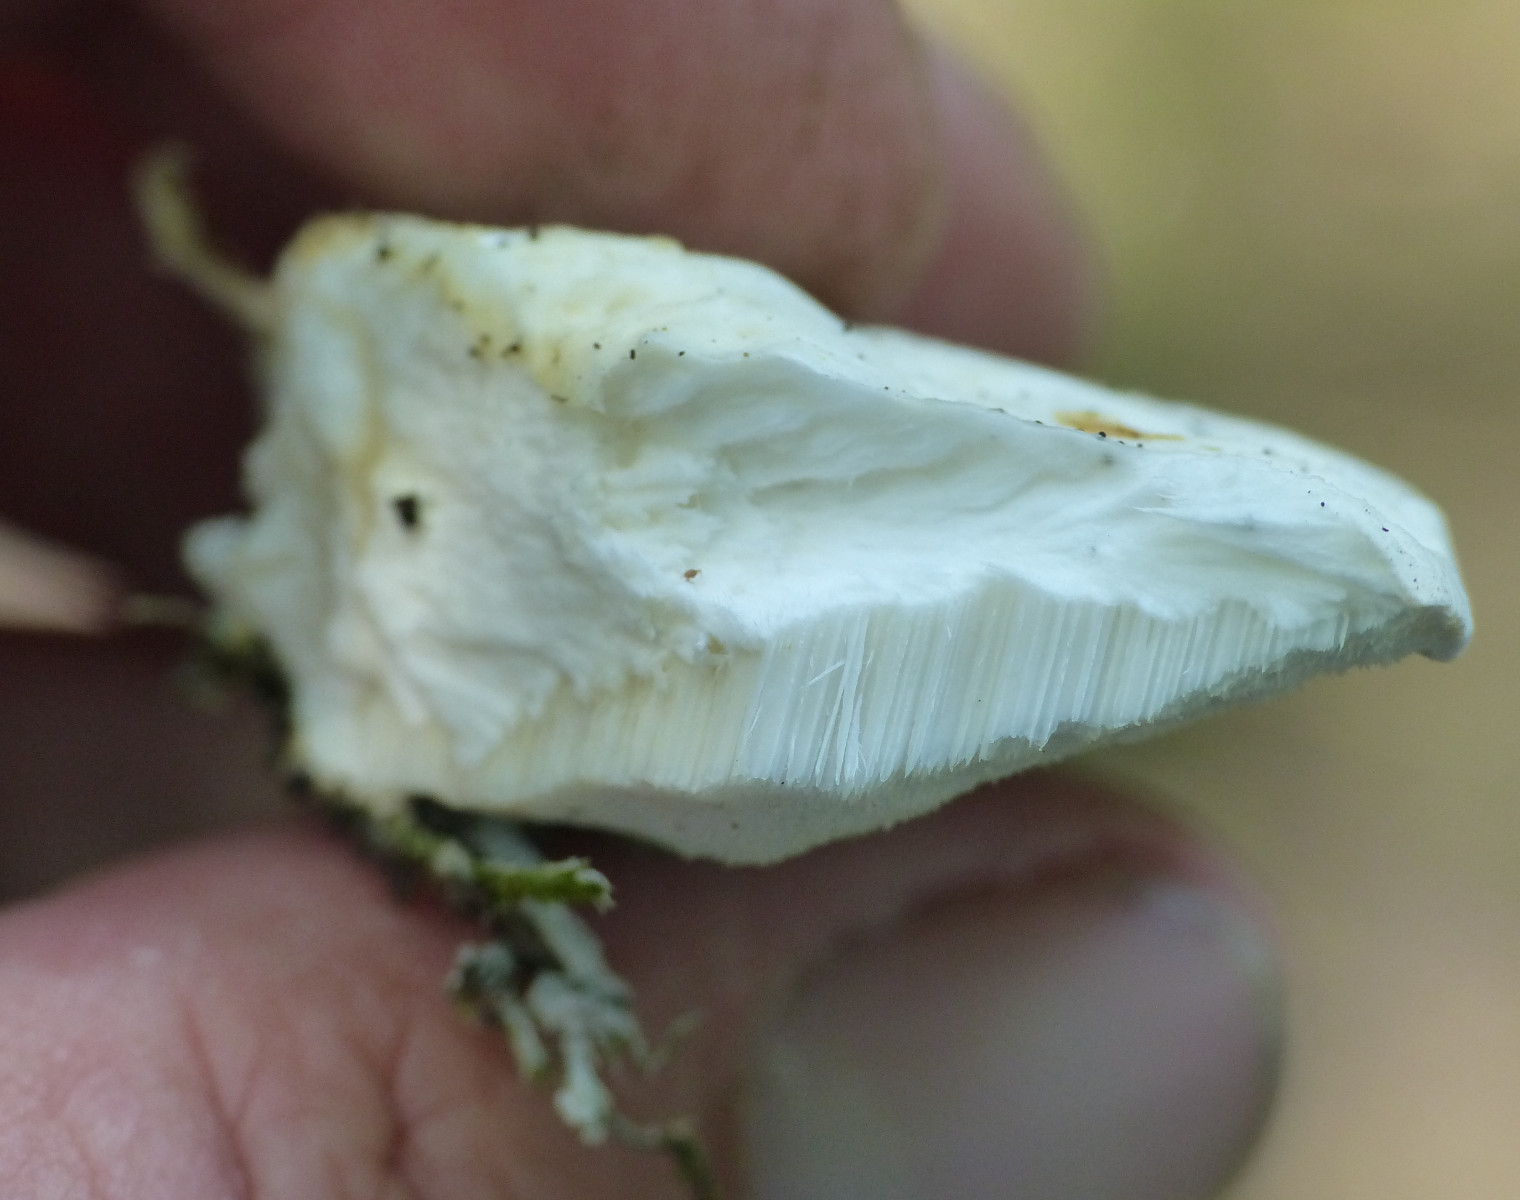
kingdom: Fungi
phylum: Basidiomycota
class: Agaricomycetes
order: Polyporales
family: Incrustoporiaceae
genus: Tyromyces
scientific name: Tyromyces lacteus
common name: mælkehvid kødporesvamp
